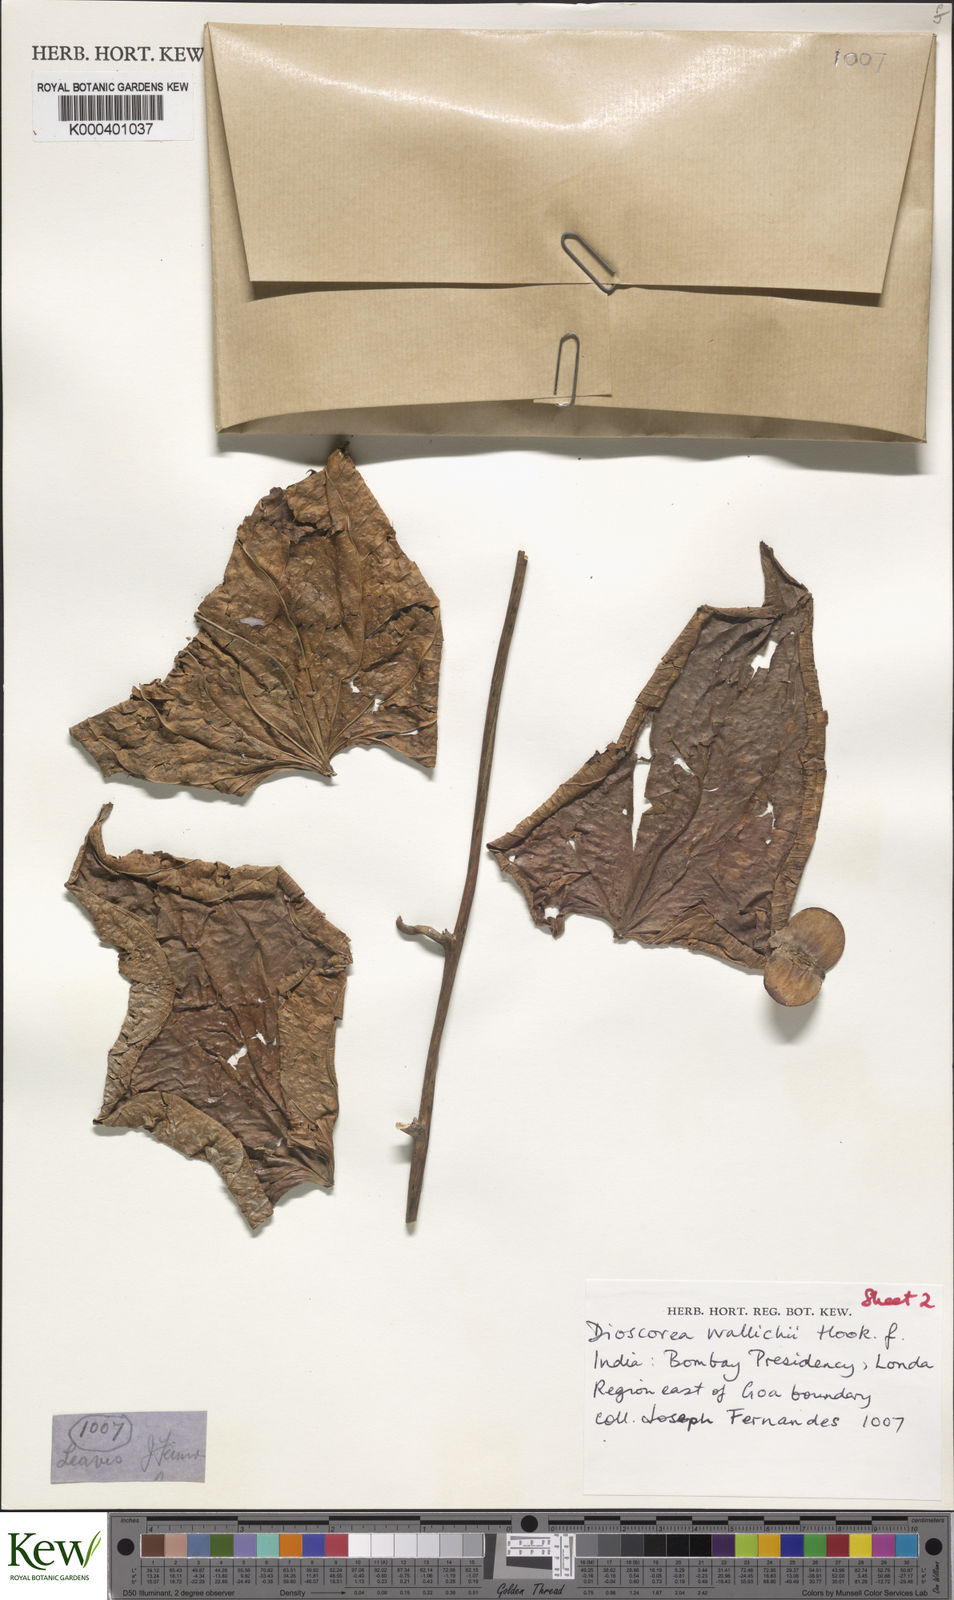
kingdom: Plantae
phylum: Tracheophyta
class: Liliopsida
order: Dioscoreales
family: Dioscoreaceae
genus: Dioscorea
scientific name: Dioscorea wallichii
